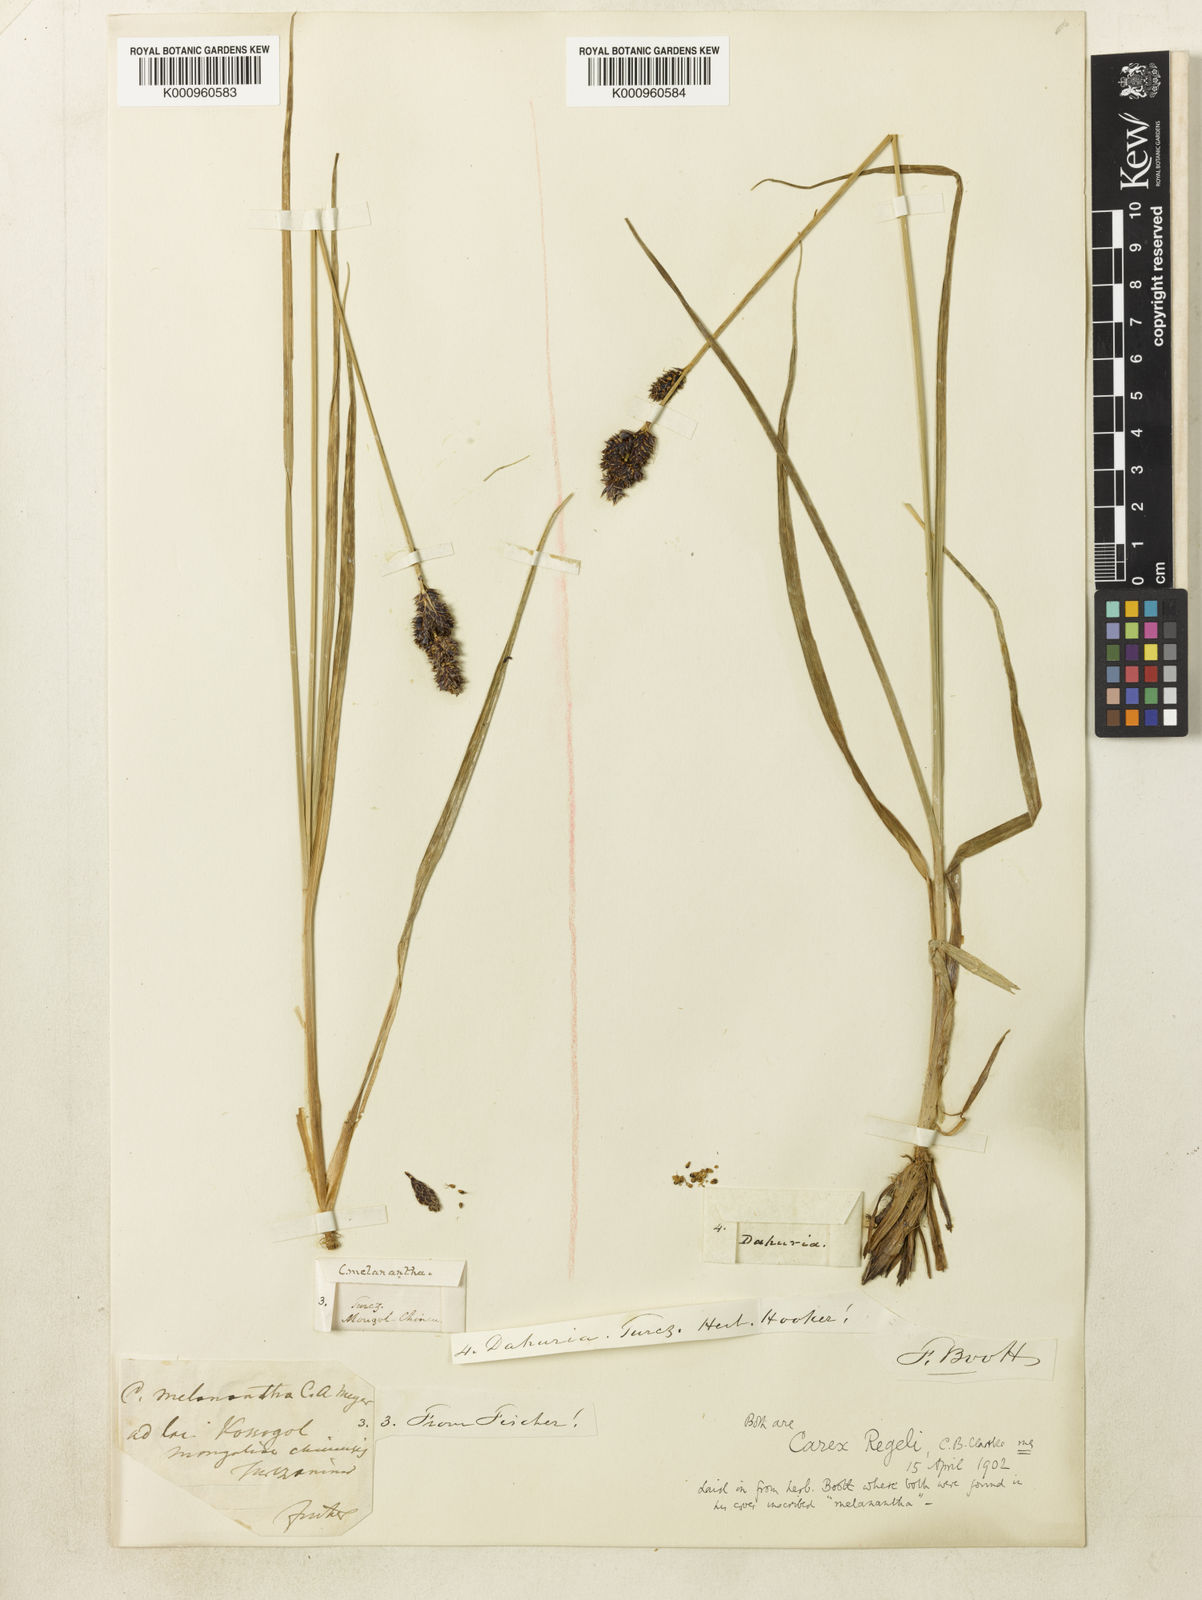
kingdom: Plantae
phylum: Tracheophyta
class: Liliopsida
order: Poales
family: Cyperaceae
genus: Carex
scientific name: Carex melanantha
